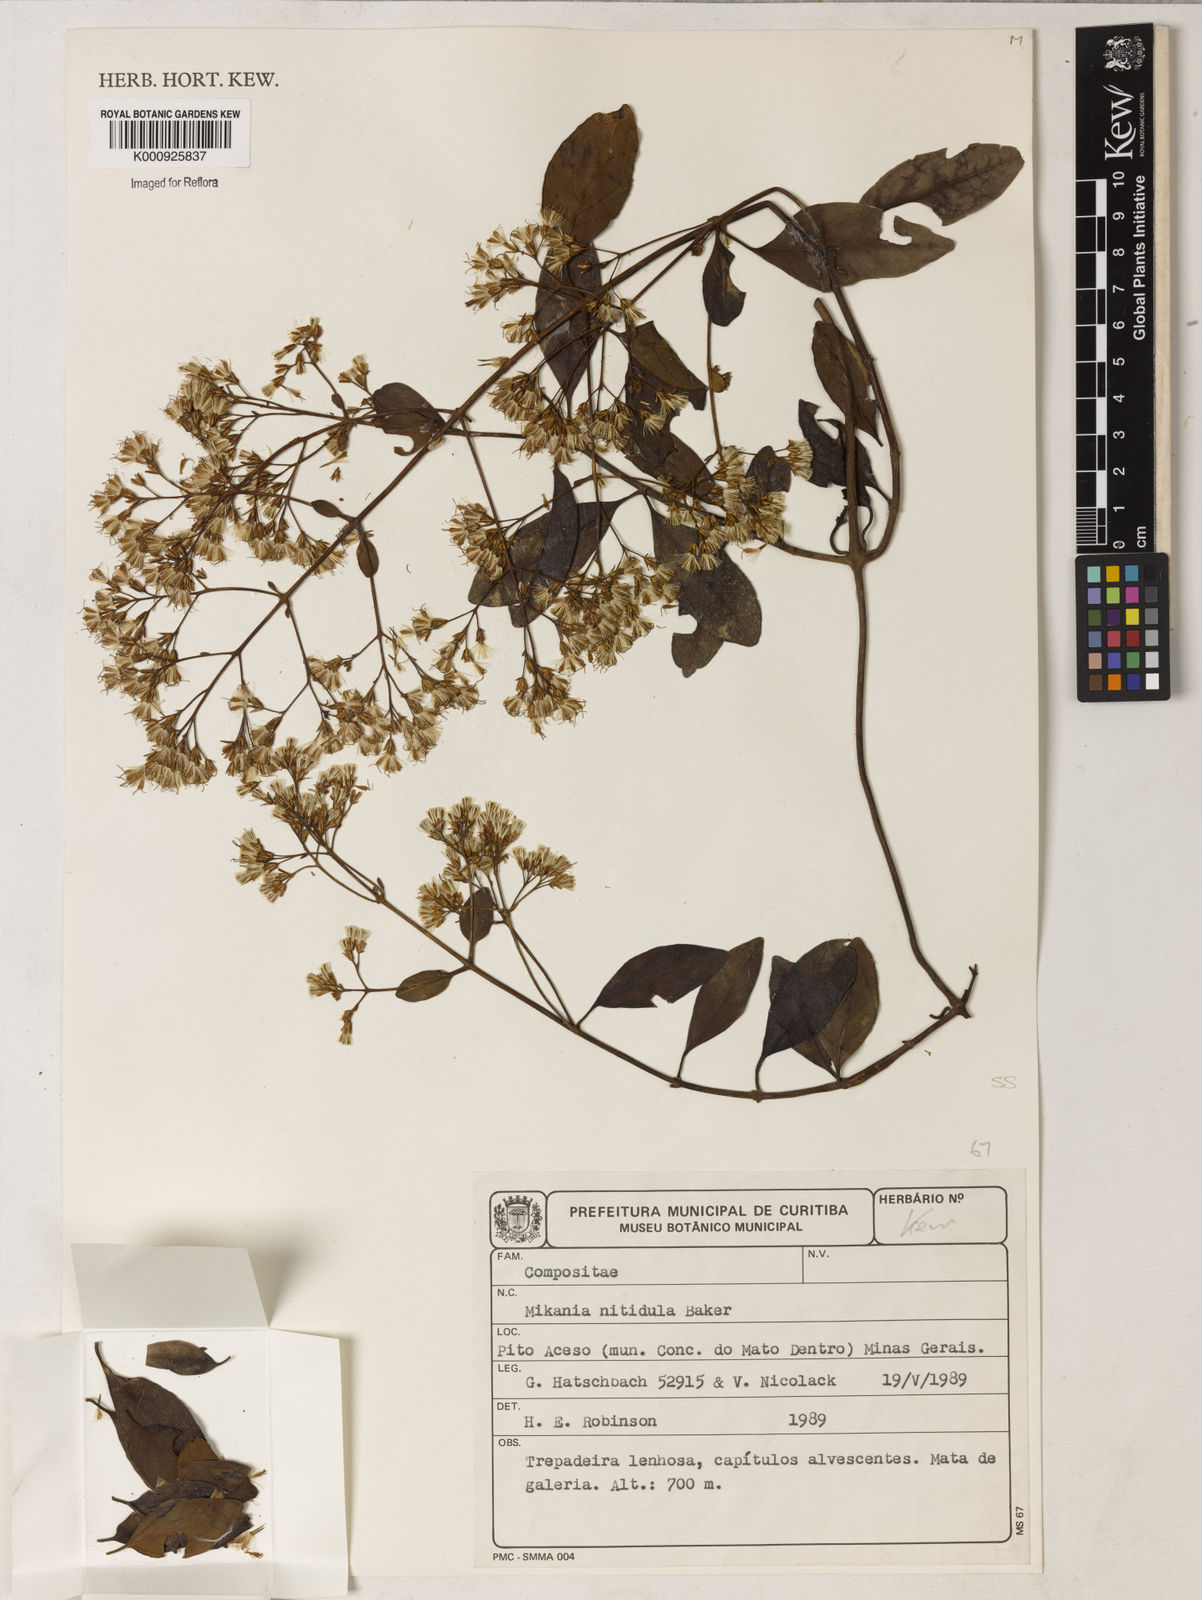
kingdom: Plantae
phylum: Tracheophyta
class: Magnoliopsida
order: Asterales
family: Asteraceae
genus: Mikania
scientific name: Mikania lindbergii
